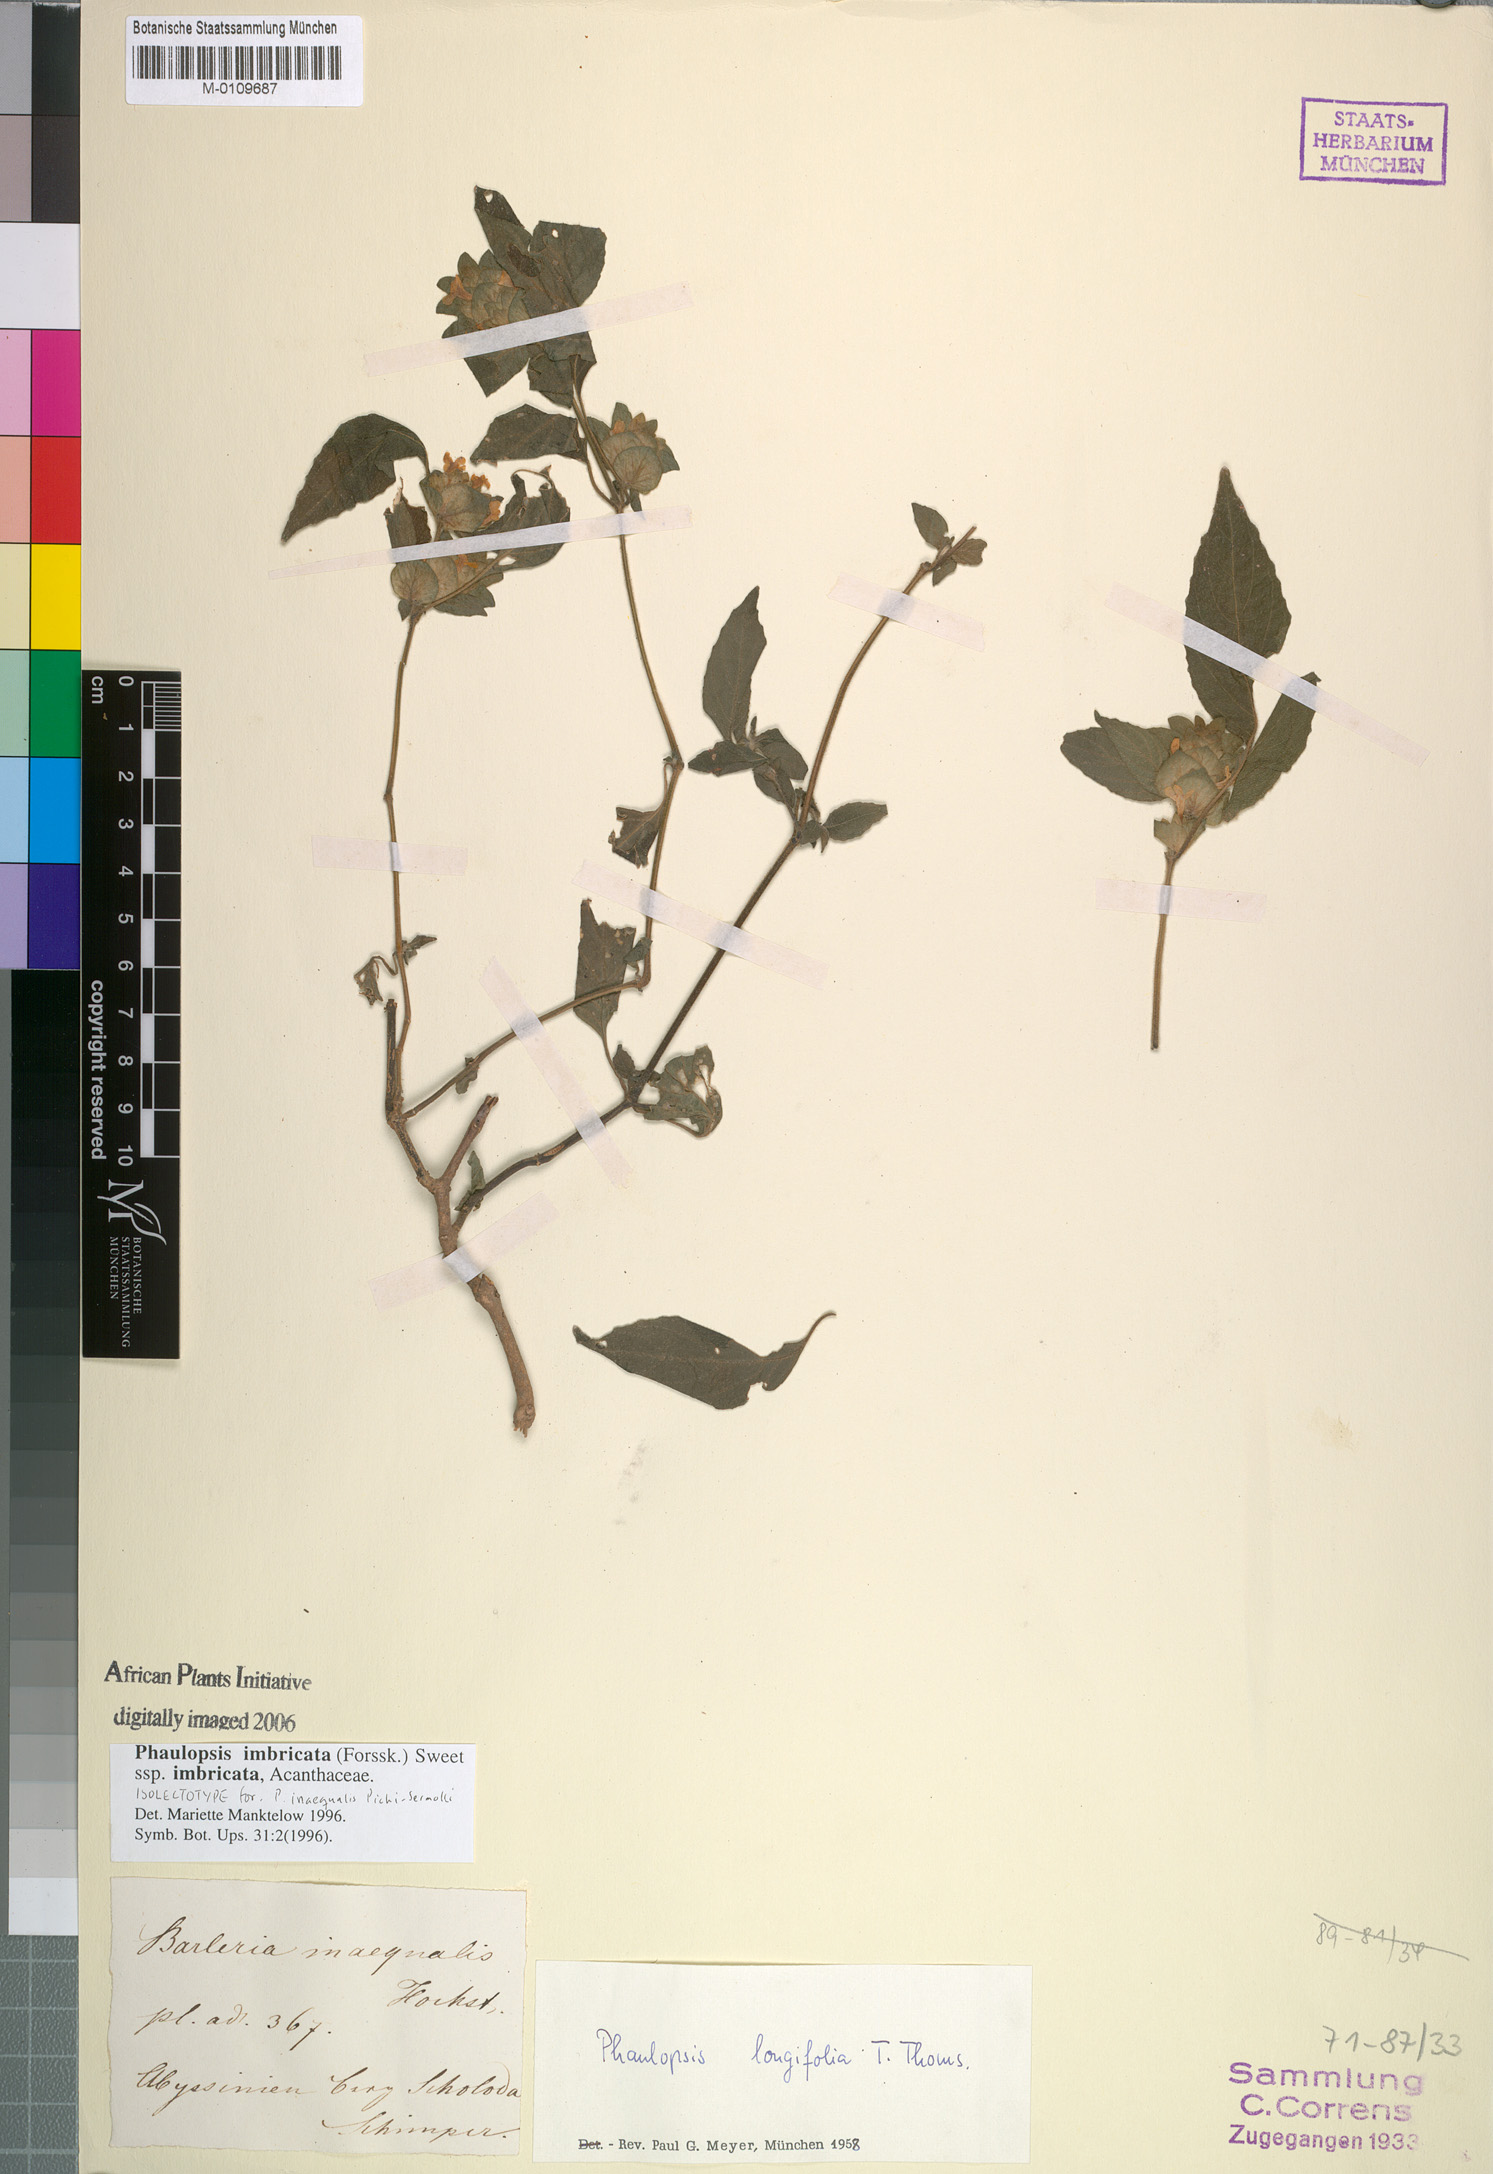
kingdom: Plantae
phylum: Tracheophyta
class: Magnoliopsida
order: Lamiales
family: Acanthaceae
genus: Phaulopsis
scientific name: Phaulopsis imbricata
